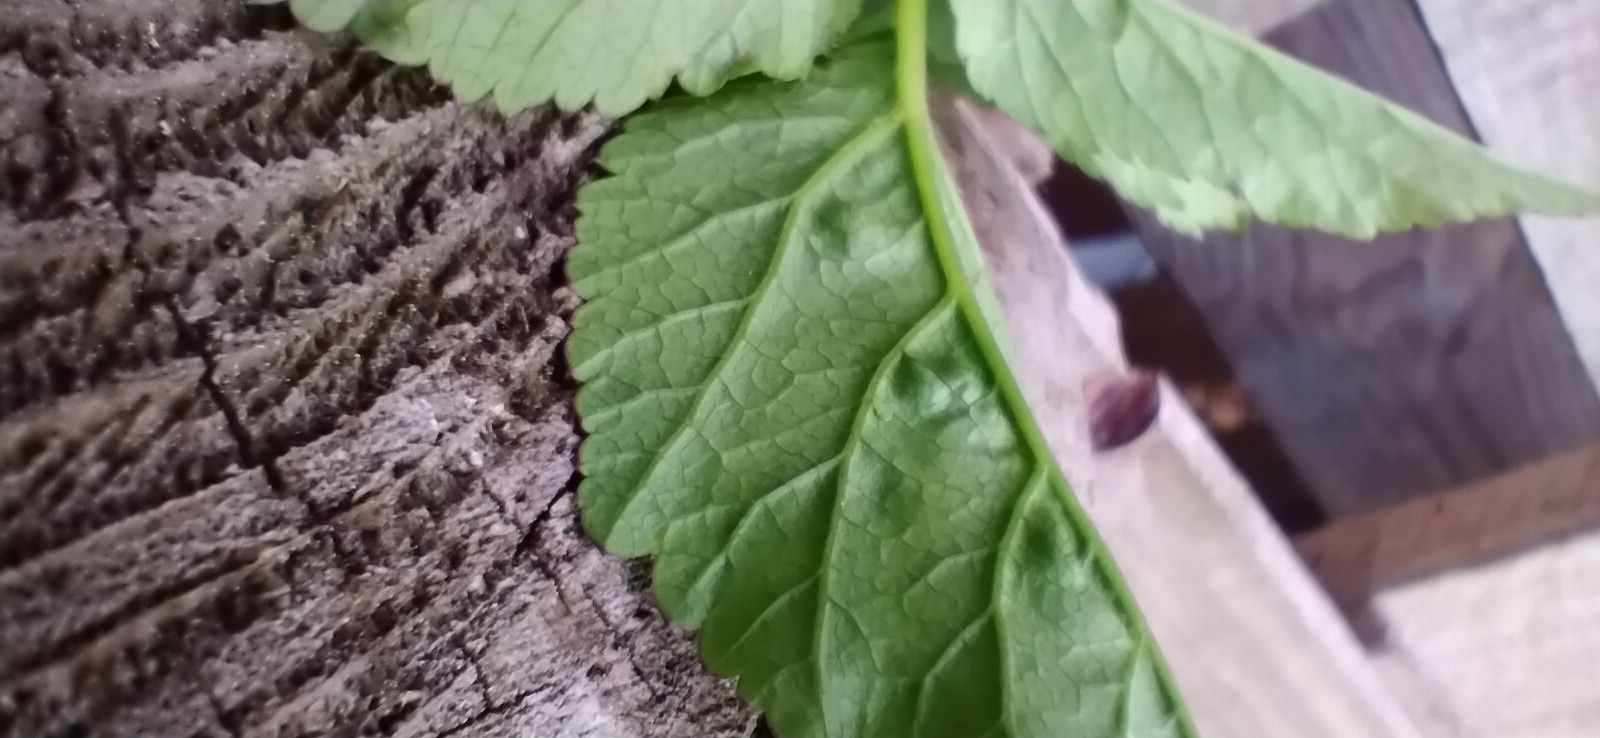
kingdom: Fungi
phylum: Ascomycota
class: Taphrinomycetes
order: Taphrinales
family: Taphrinaceae
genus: Protomyces
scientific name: Protomyces macrosporus
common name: skvalderkål-vablesæk
